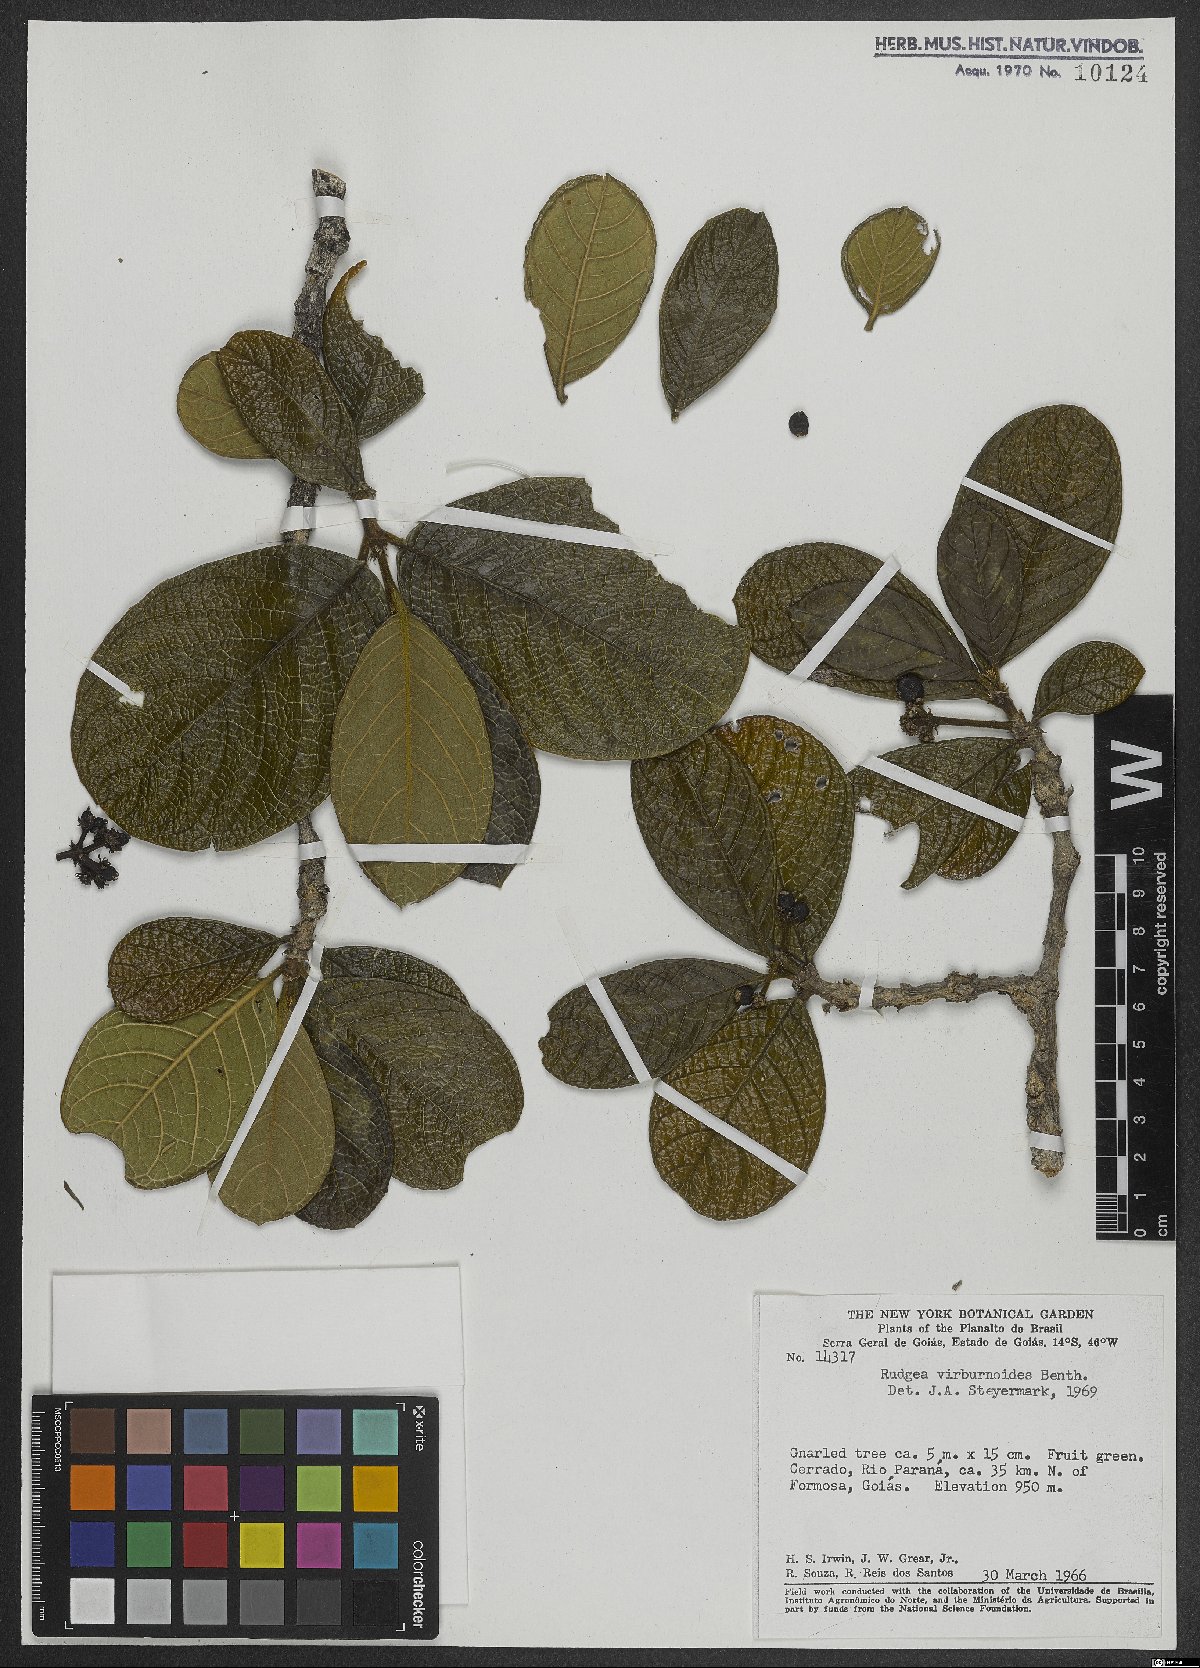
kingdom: Plantae
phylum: Tracheophyta
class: Magnoliopsida
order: Gentianales
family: Rubiaceae
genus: Rudgea
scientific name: Rudgea viburnoides
